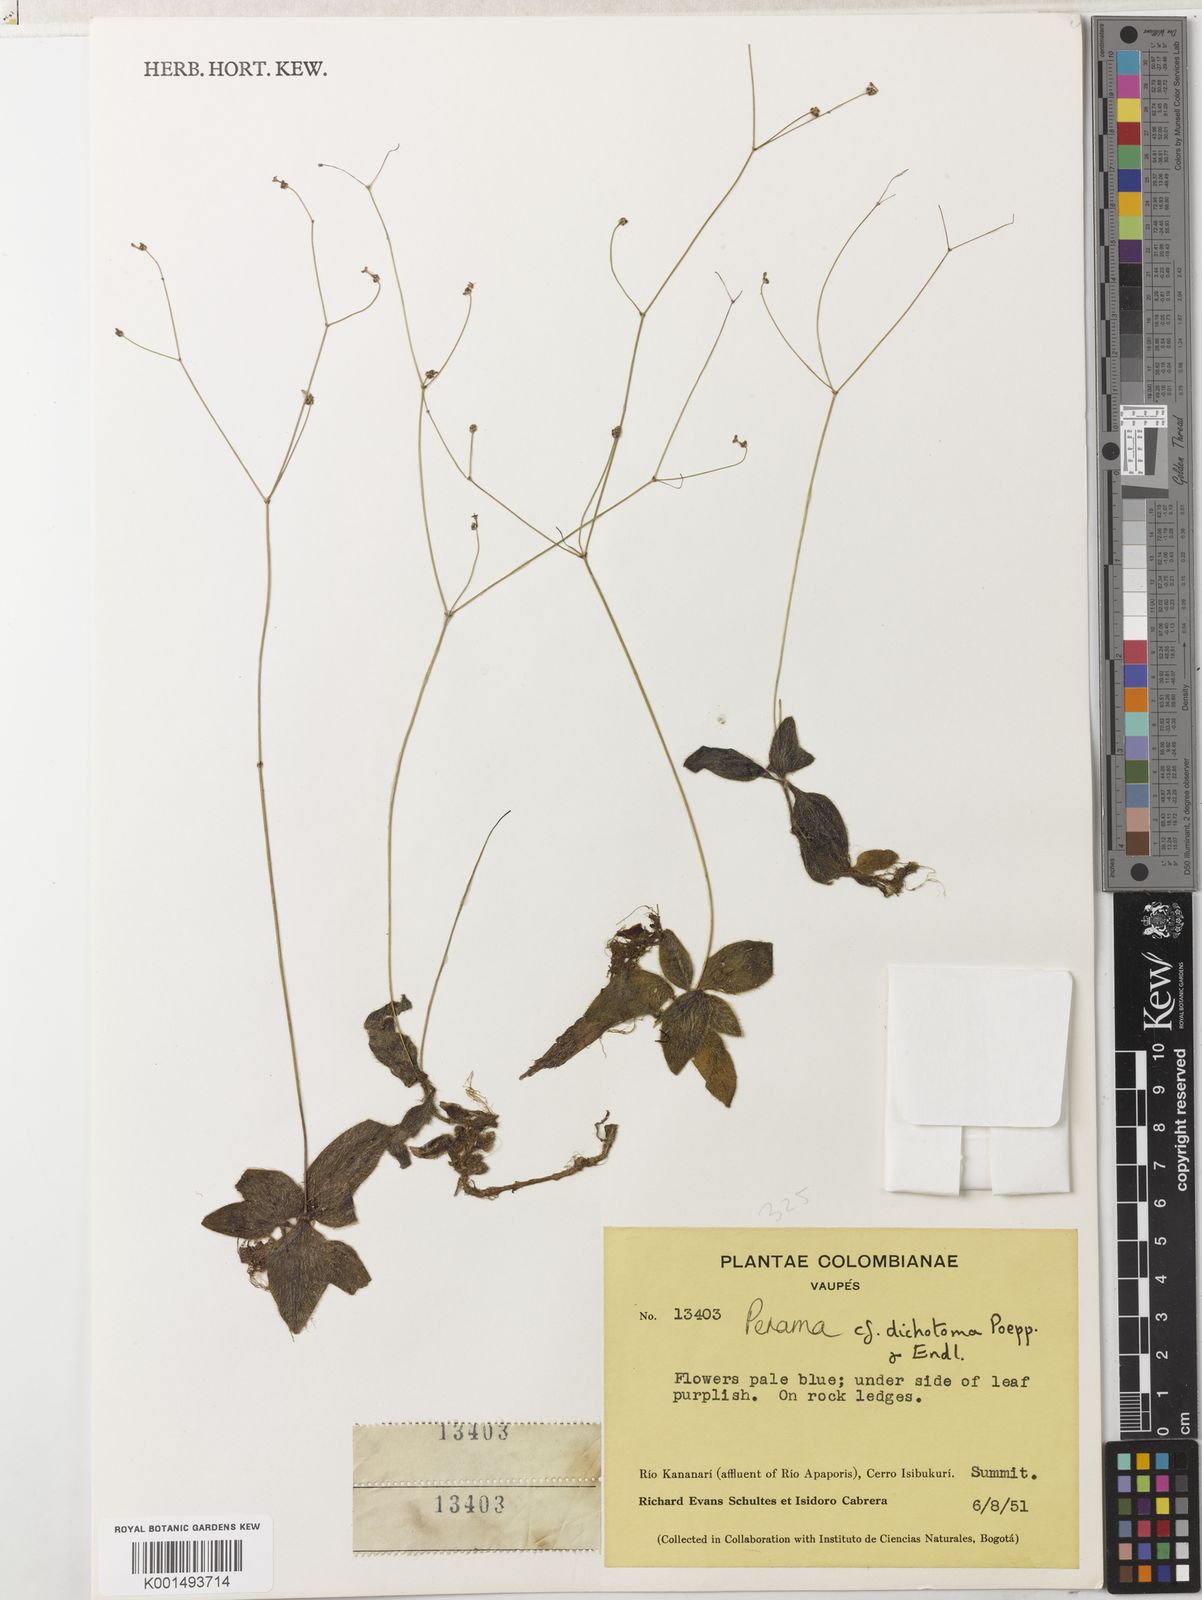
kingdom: Plantae
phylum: Tracheophyta
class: Magnoliopsida
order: Gentianales
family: Rubiaceae
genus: Perama
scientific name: Perama dichotoma
